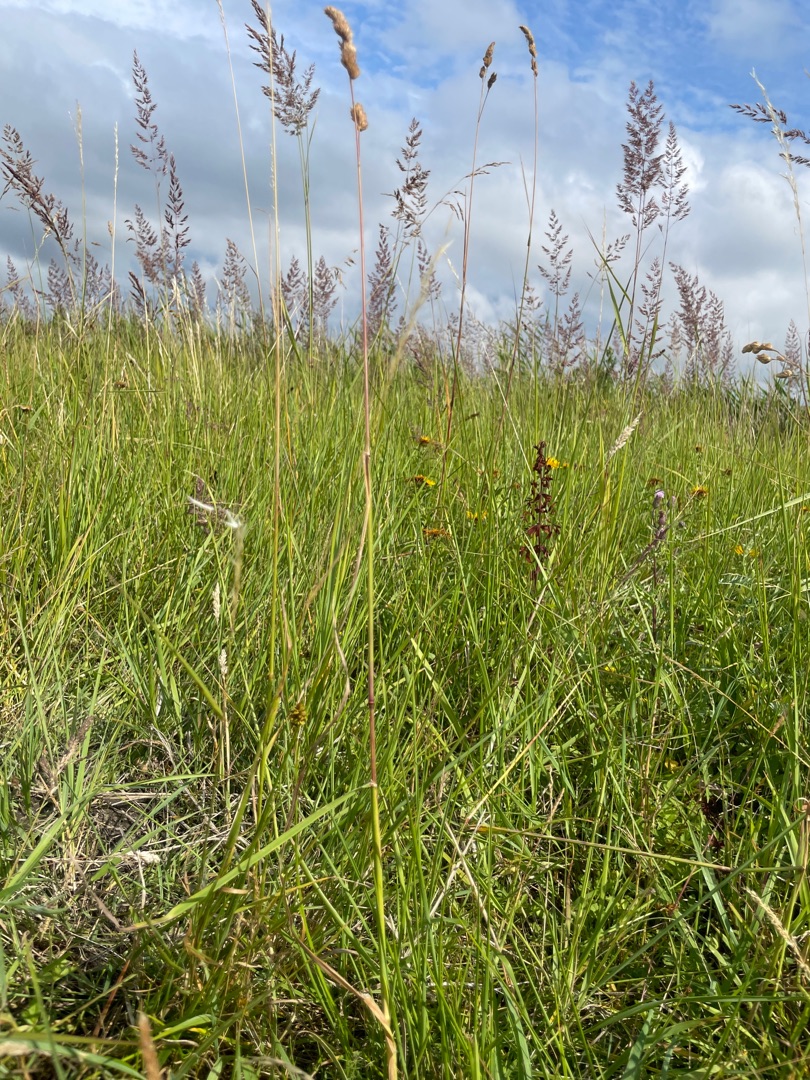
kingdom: Plantae
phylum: Tracheophyta
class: Liliopsida
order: Poales
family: Poaceae
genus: Dactylis
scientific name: Dactylis glomerata
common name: Almindelig hundegræs
